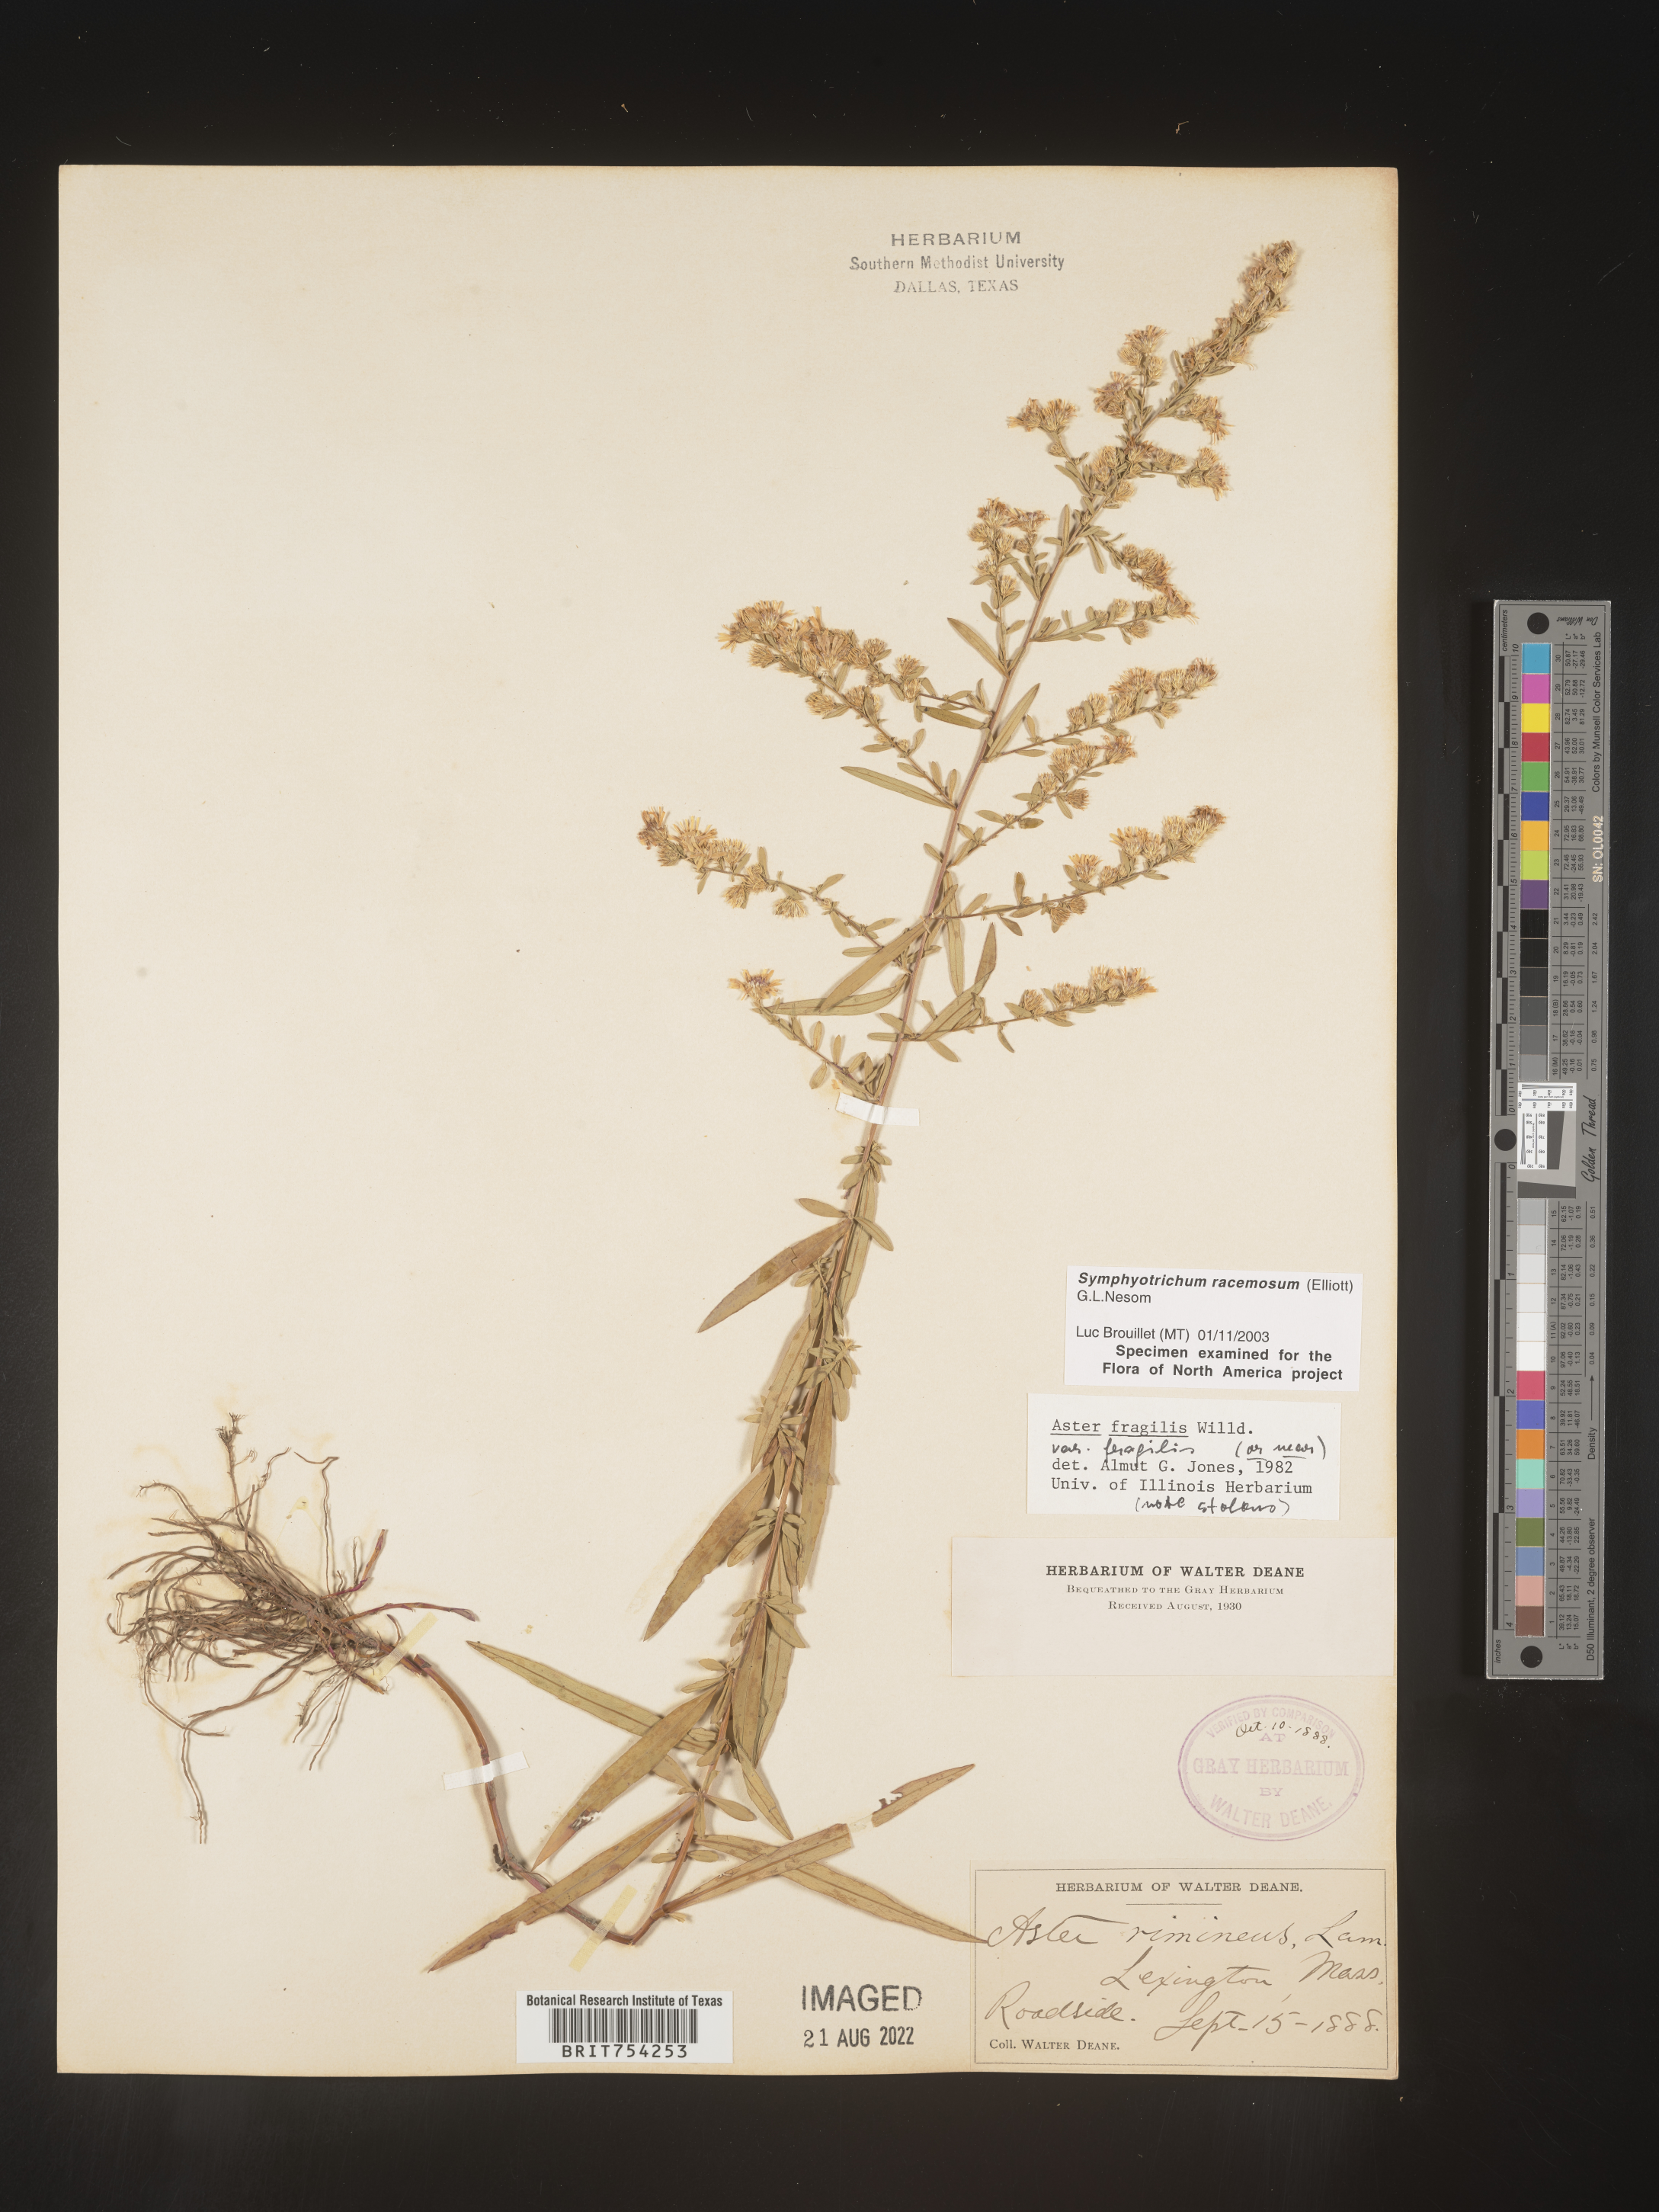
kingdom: Plantae
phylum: Tracheophyta
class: Magnoliopsida
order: Asterales
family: Asteraceae
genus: Symphyotrichum
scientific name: Symphyotrichum racemosum
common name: Small white aster
